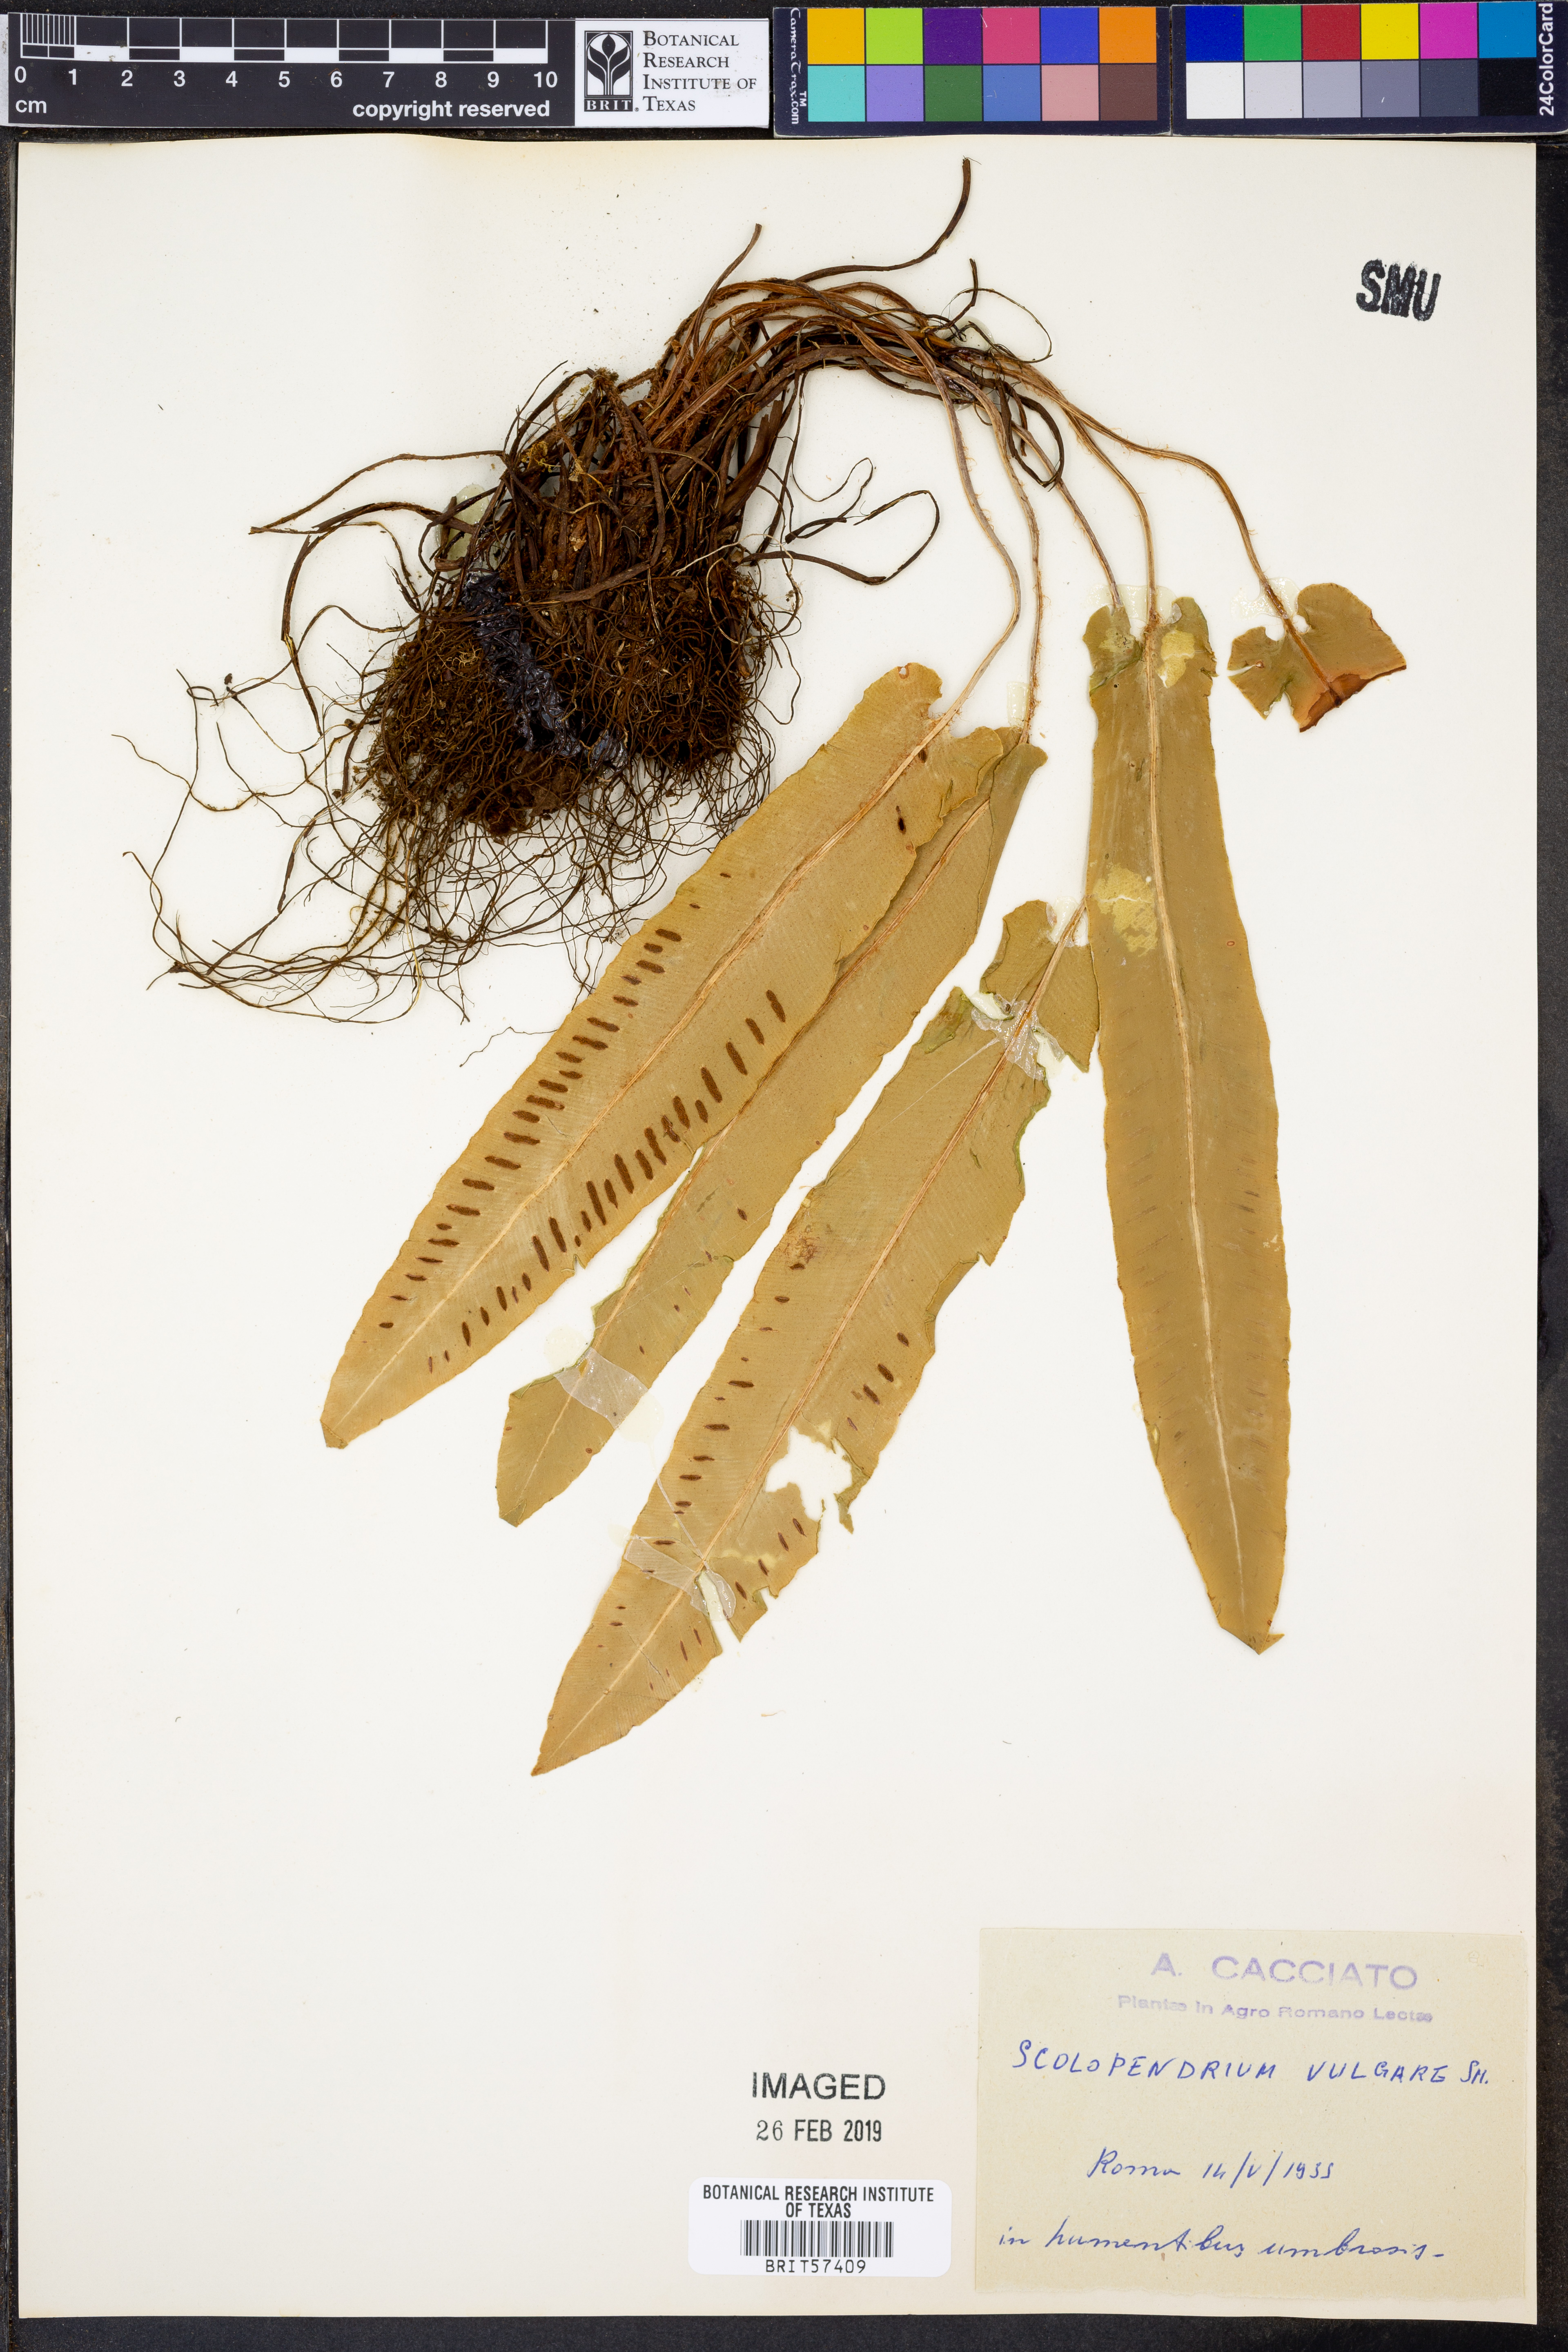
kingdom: Plantae
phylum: Tracheophyta
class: Polypodiopsida
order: Polypodiales
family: Aspleniaceae
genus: Asplenium
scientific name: Asplenium scolopendrium
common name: Hart's-tongue fern
